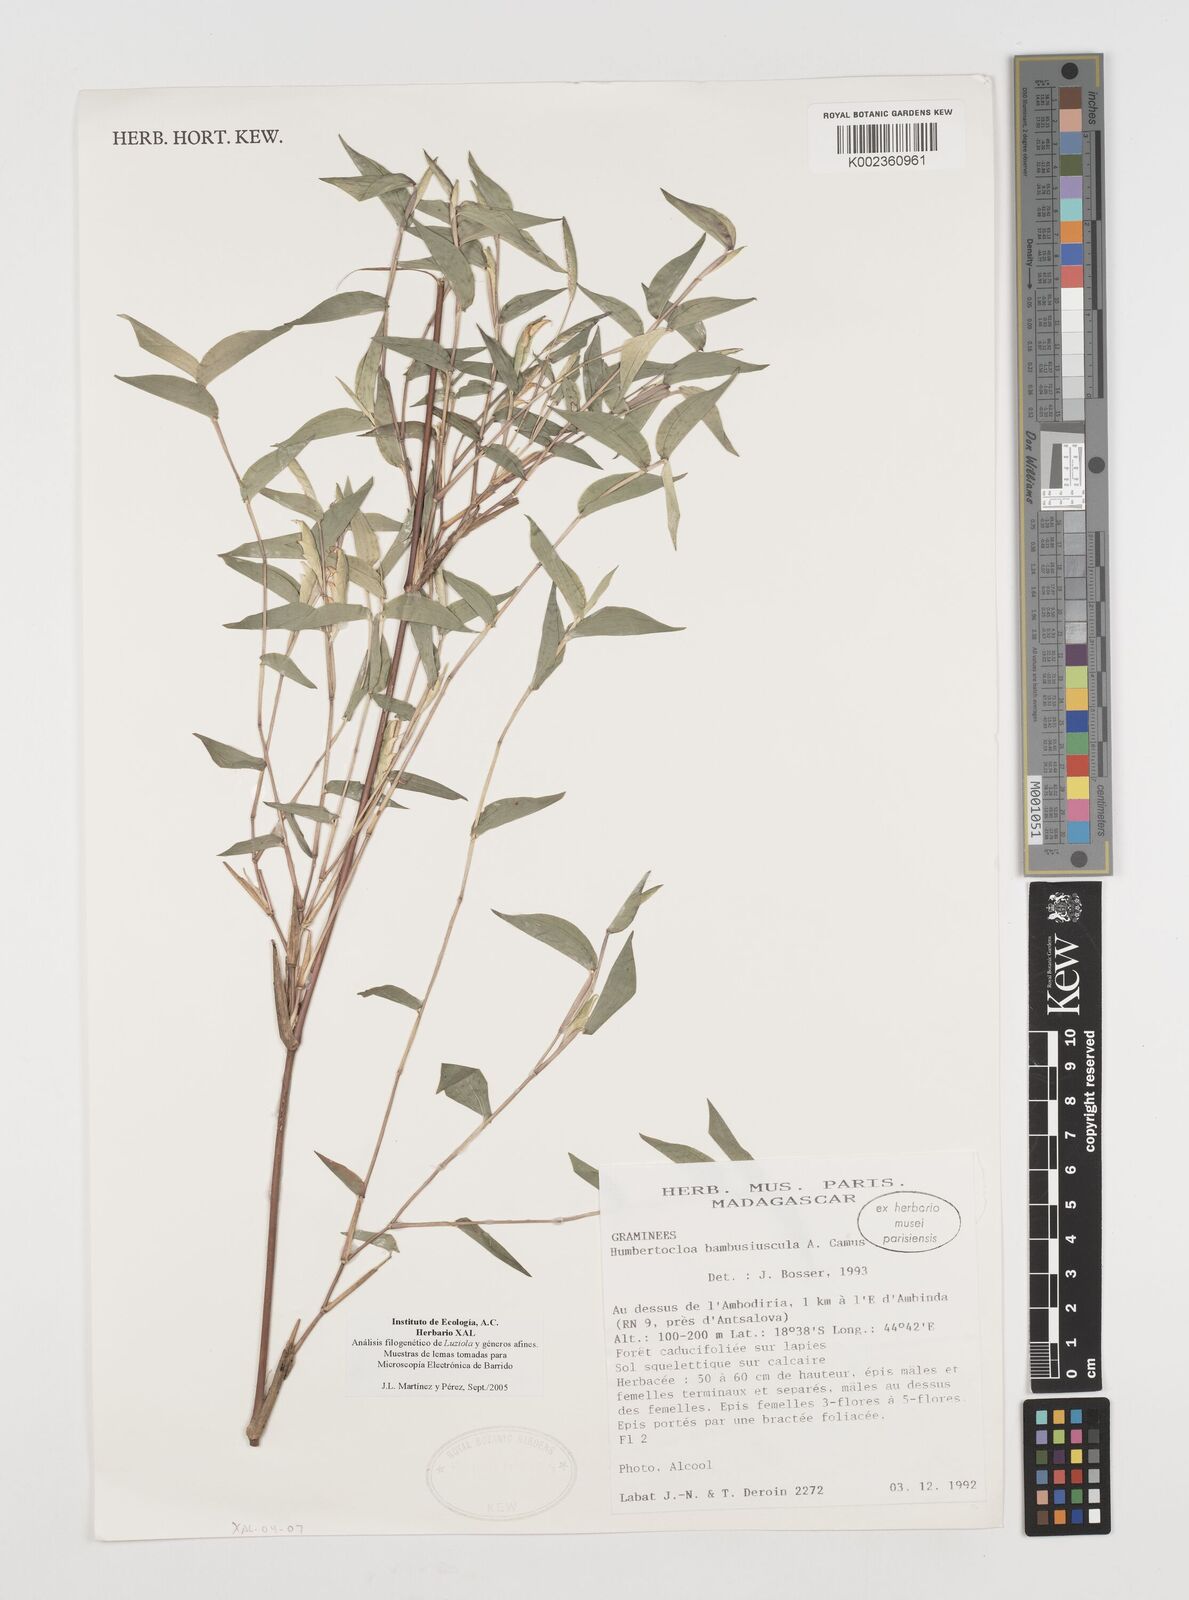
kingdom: Plantae
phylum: Tracheophyta
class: Liliopsida
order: Poales
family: Poaceae
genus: Humbertochloa
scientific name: Humbertochloa bambusiuscula
